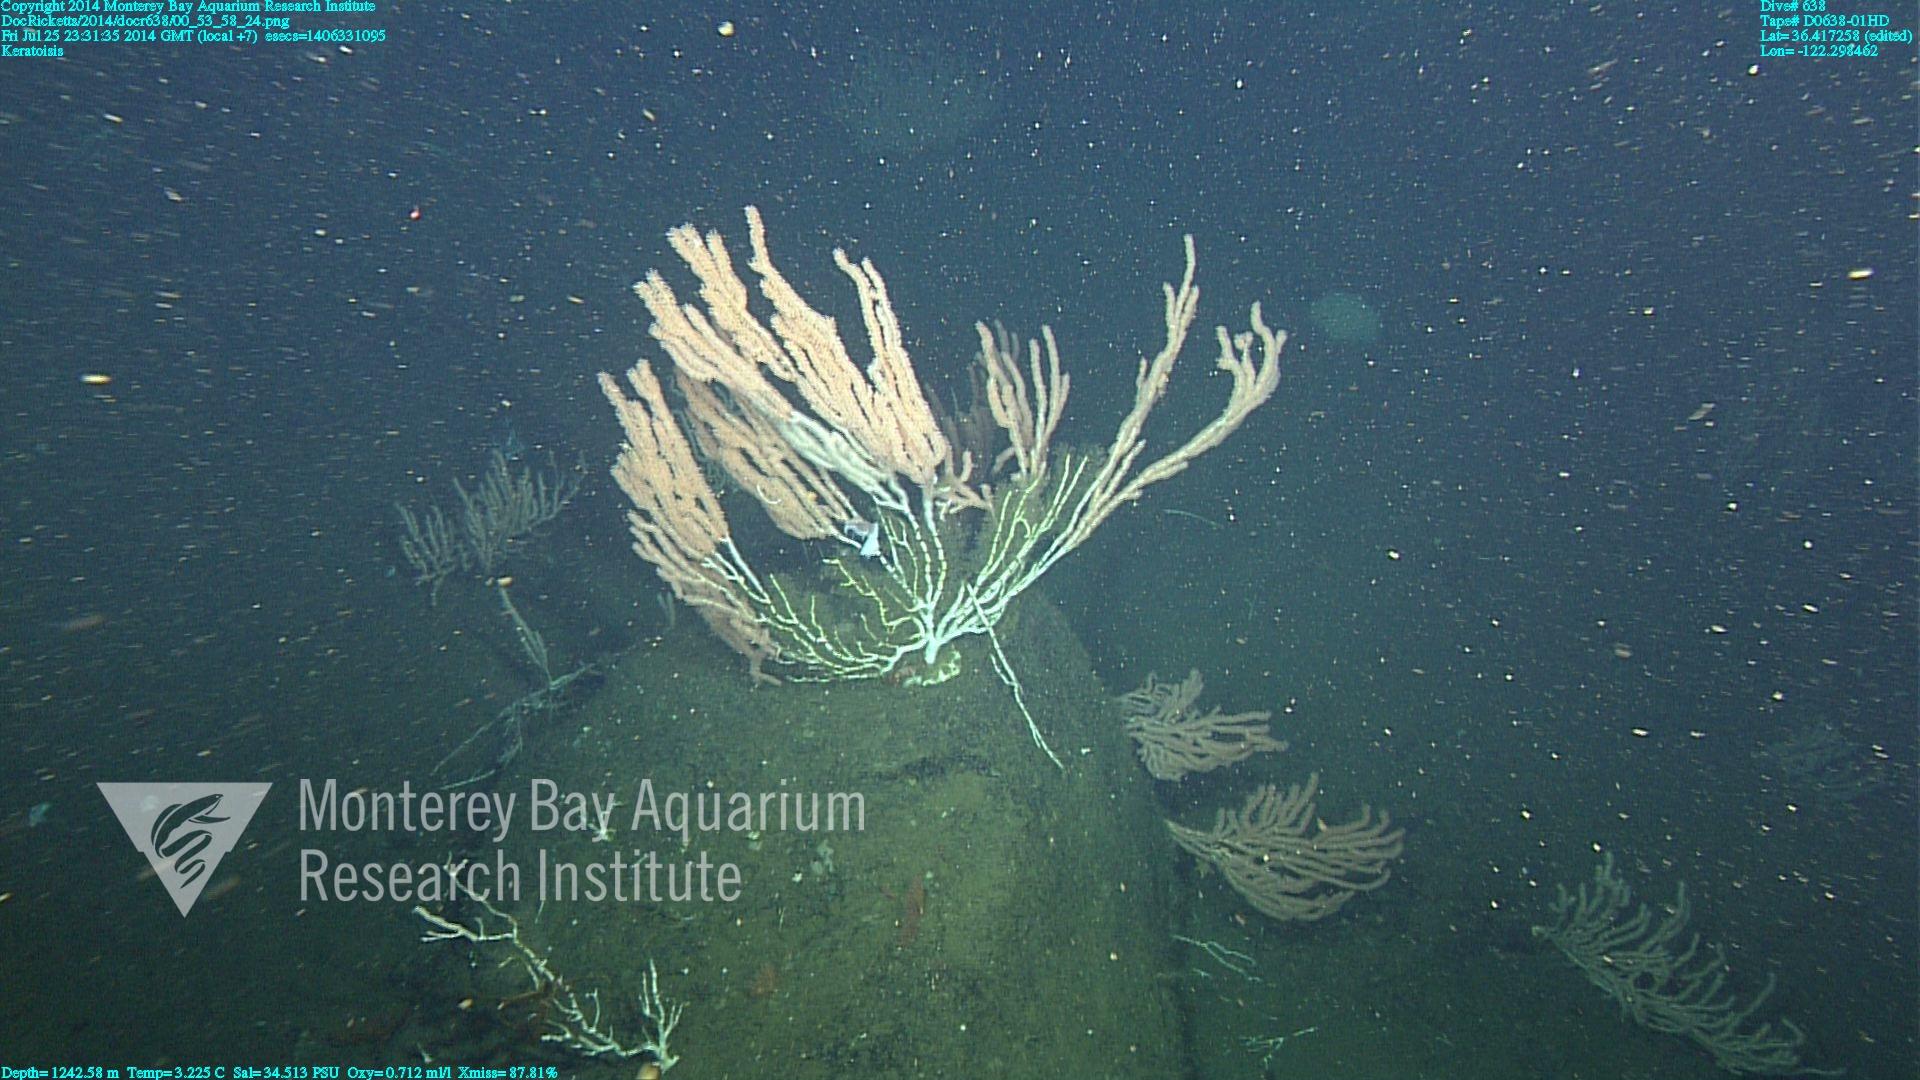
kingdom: Animalia
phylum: Cnidaria
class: Anthozoa
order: Scleralcyonacea
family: Keratoisididae
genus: Keratoisis
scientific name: Keratoisis
